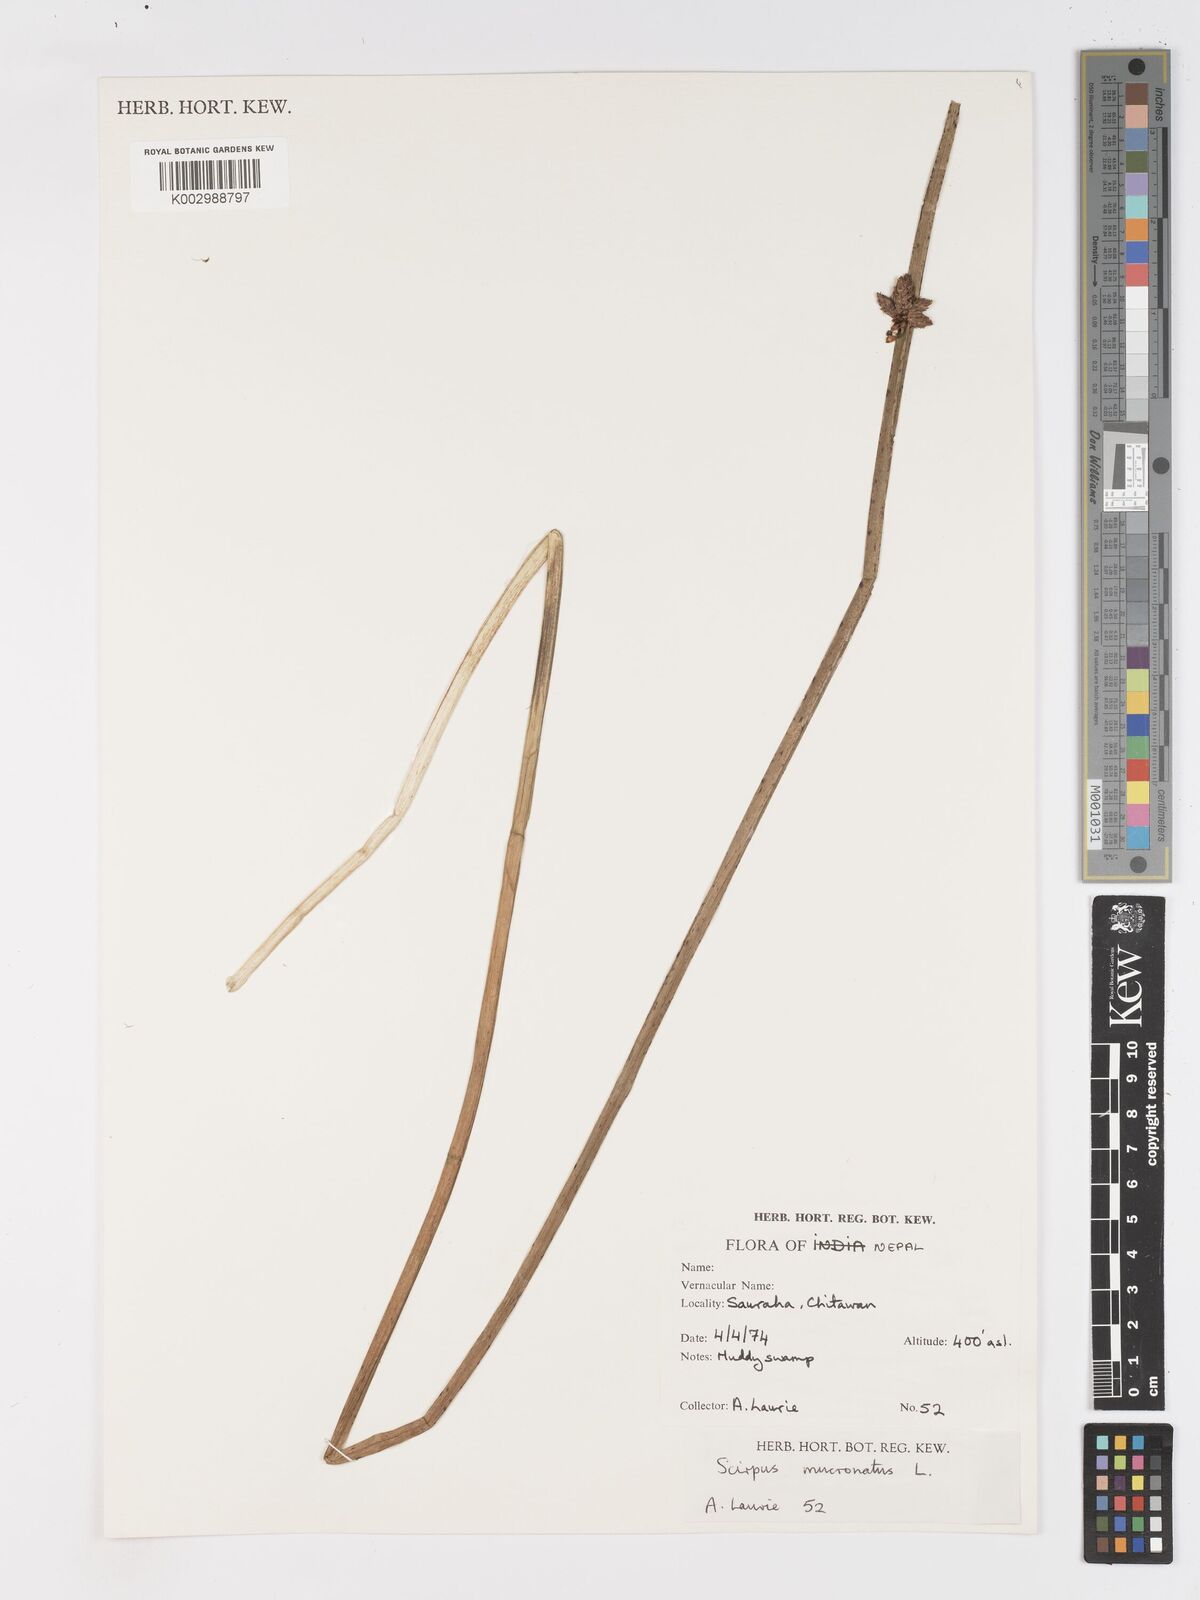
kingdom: Plantae
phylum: Tracheophyta
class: Liliopsida
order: Poales
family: Cyperaceae
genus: Schoenoplectiella
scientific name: Schoenoplectiella mucronata
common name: Bog bulrush
